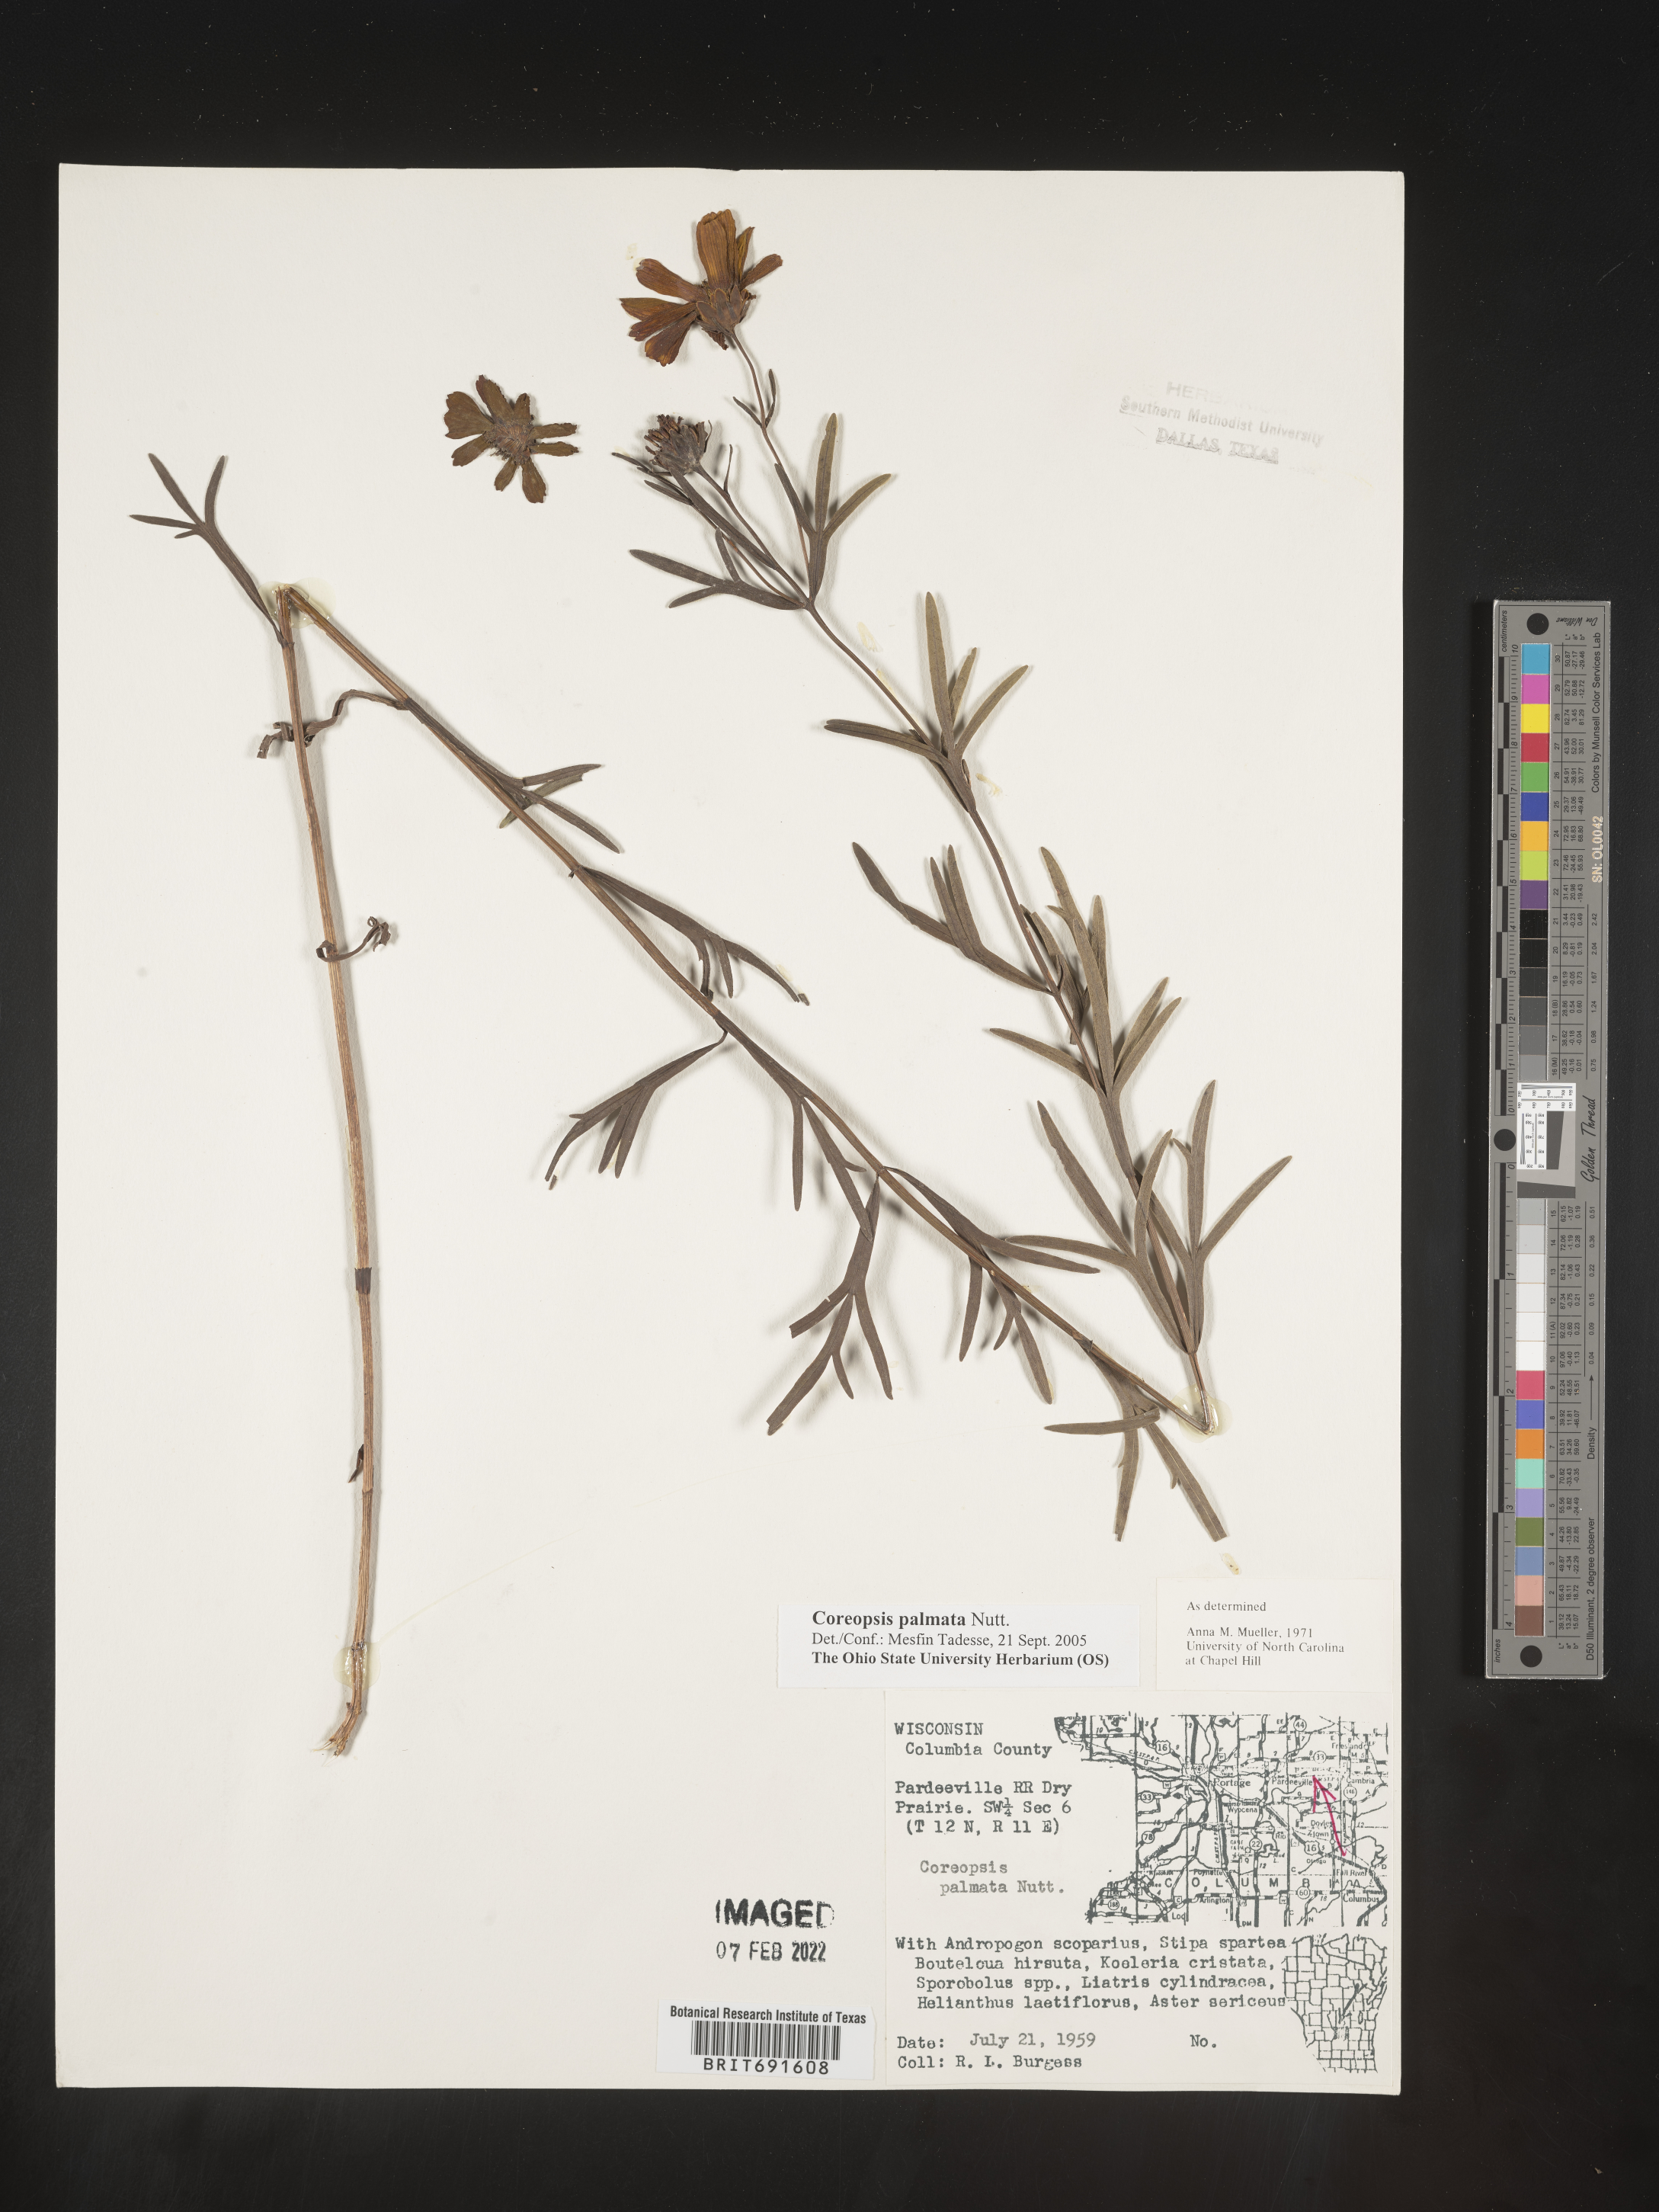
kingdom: Plantae
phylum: Tracheophyta
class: Magnoliopsida
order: Asterales
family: Asteraceae
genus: Coreopsis
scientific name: Coreopsis palmata
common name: Prairie coreopsis
